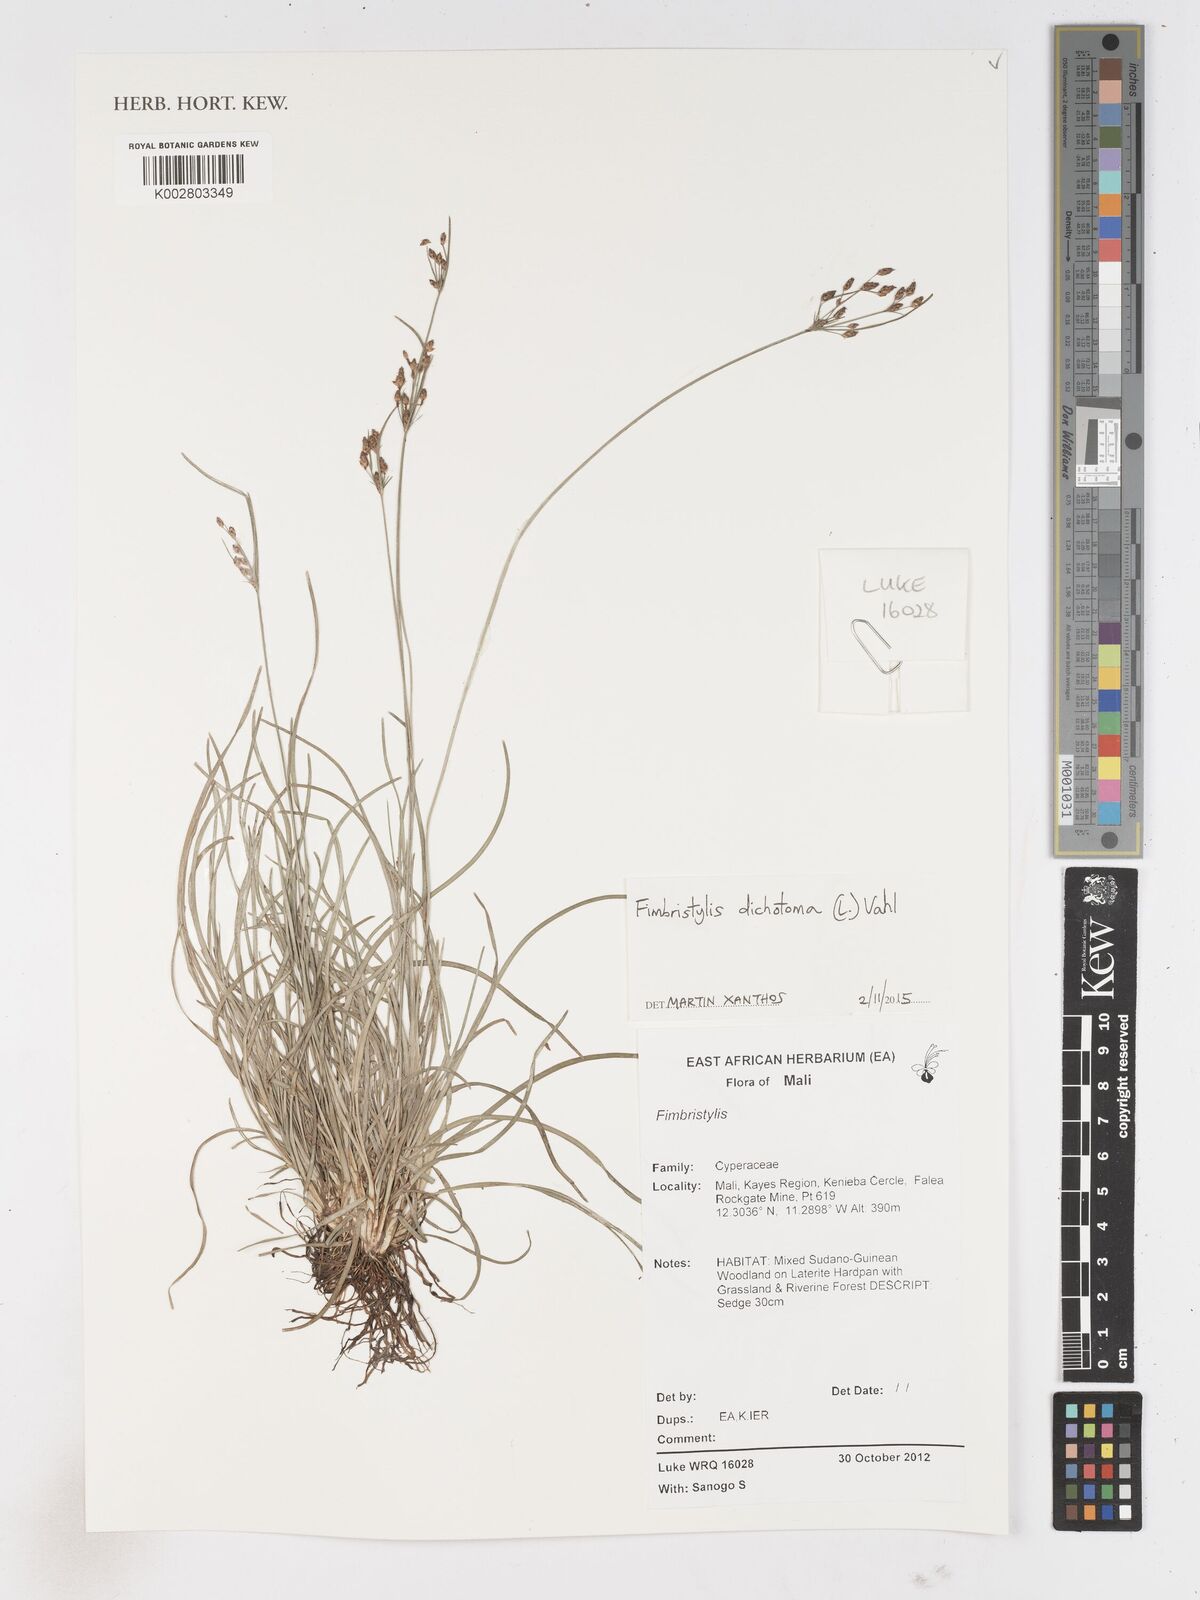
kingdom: Plantae
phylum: Tracheophyta
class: Liliopsida
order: Poales
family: Cyperaceae
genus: Fimbristylis
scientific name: Fimbristylis dichotoma
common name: Forked fimbry
